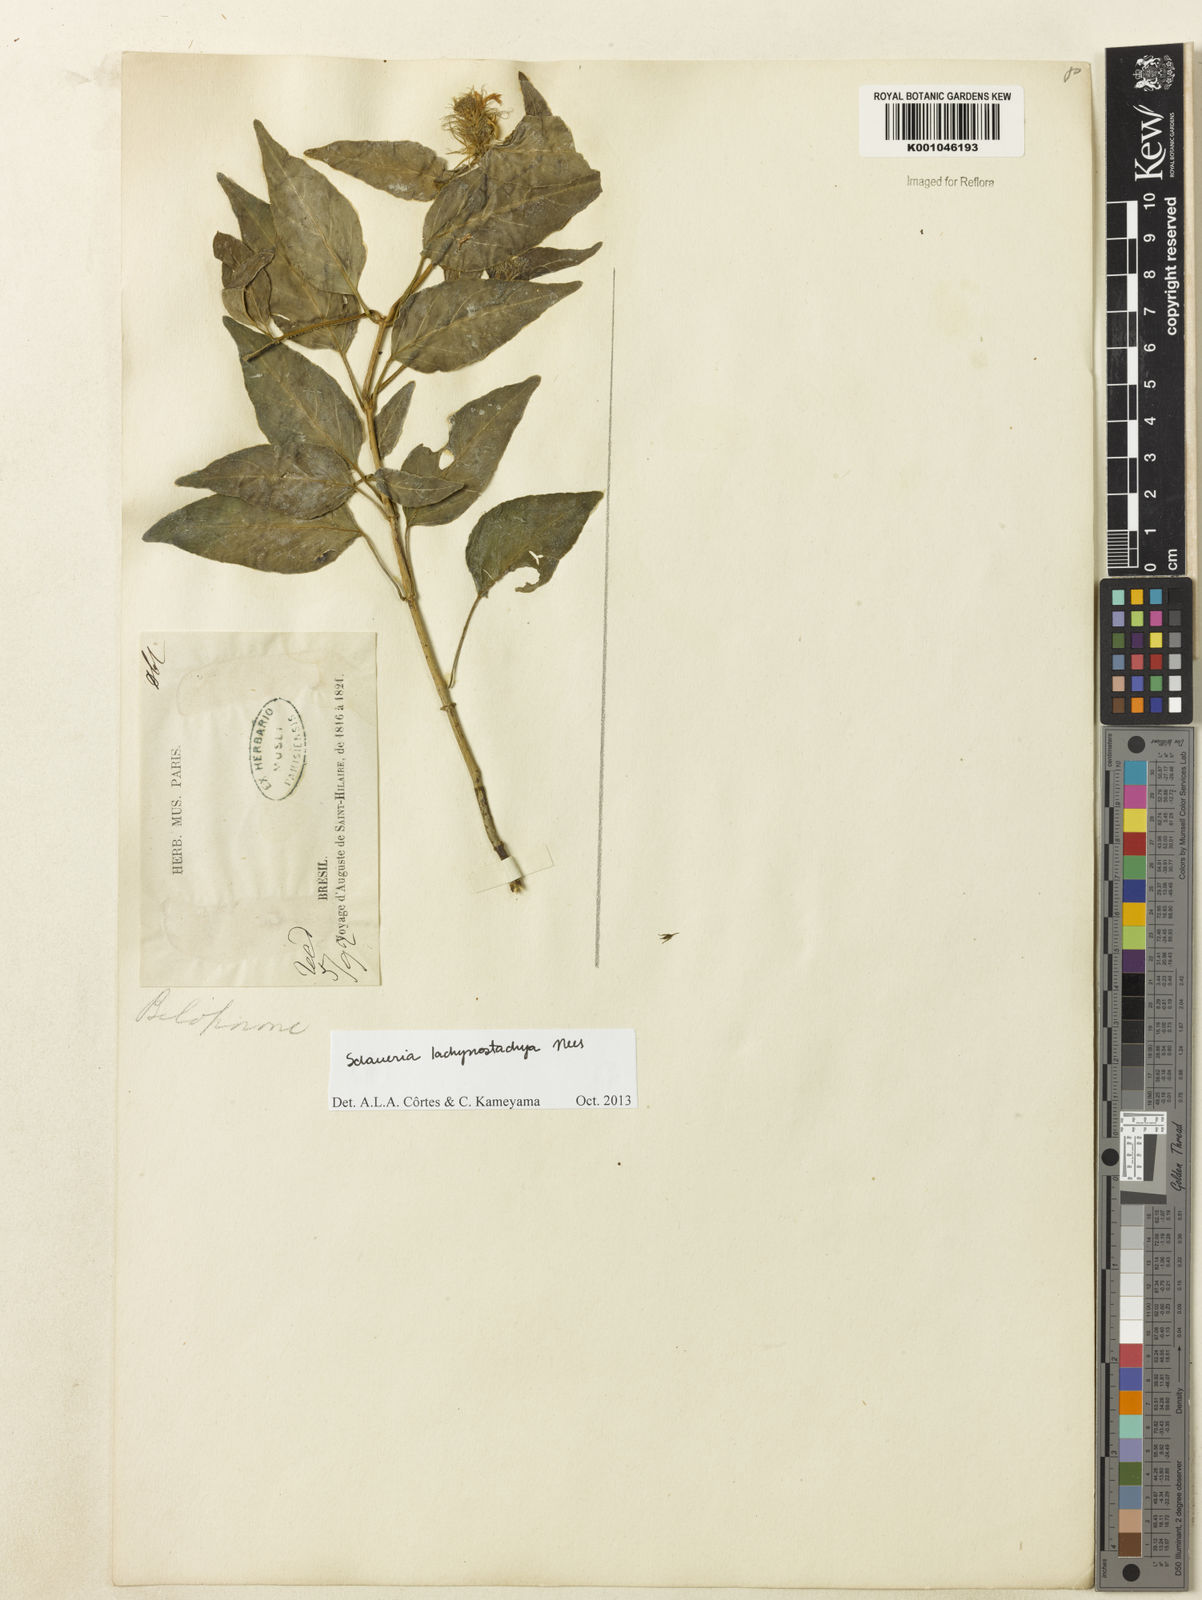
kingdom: Plantae
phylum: Tracheophyta
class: Magnoliopsida
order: Lamiales
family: Acanthaceae
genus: Schaueria
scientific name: Schaueria lachnostachya
